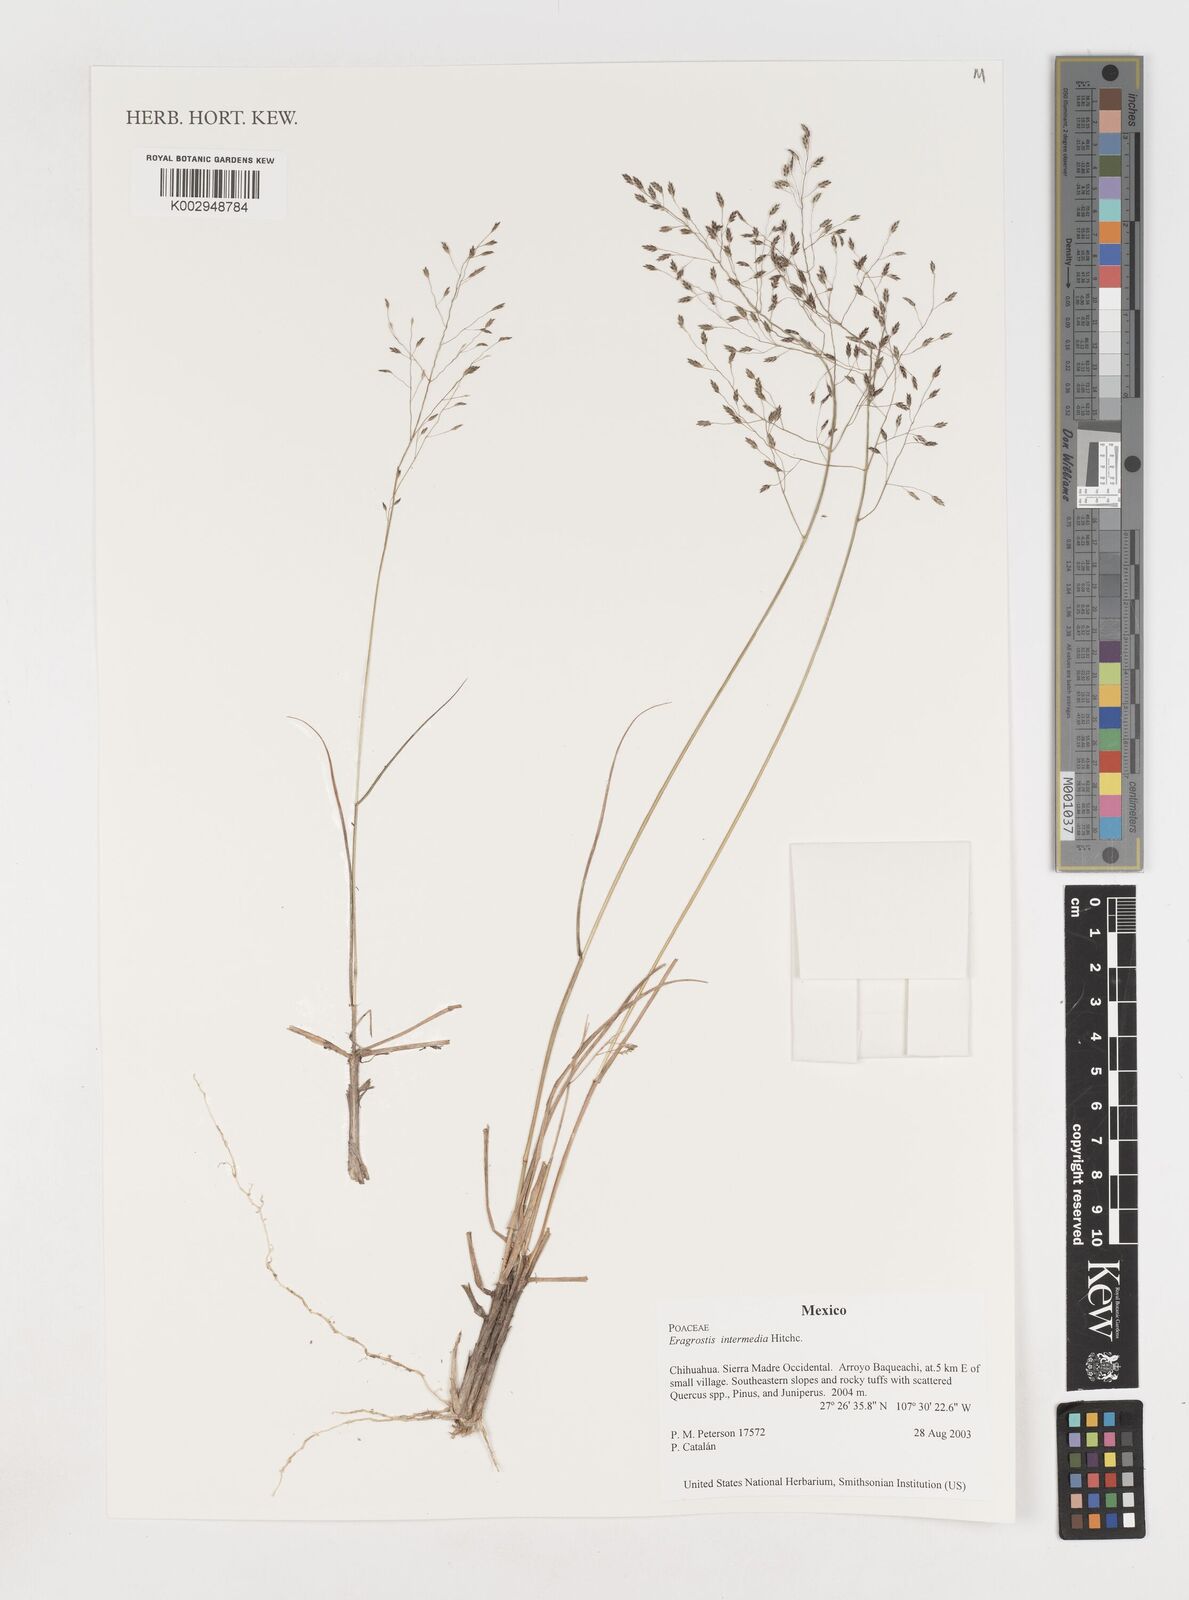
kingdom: Plantae
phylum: Tracheophyta
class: Liliopsida
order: Poales
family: Poaceae
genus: Eragrostis
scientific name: Eragrostis intermedia
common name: Plains love grass
